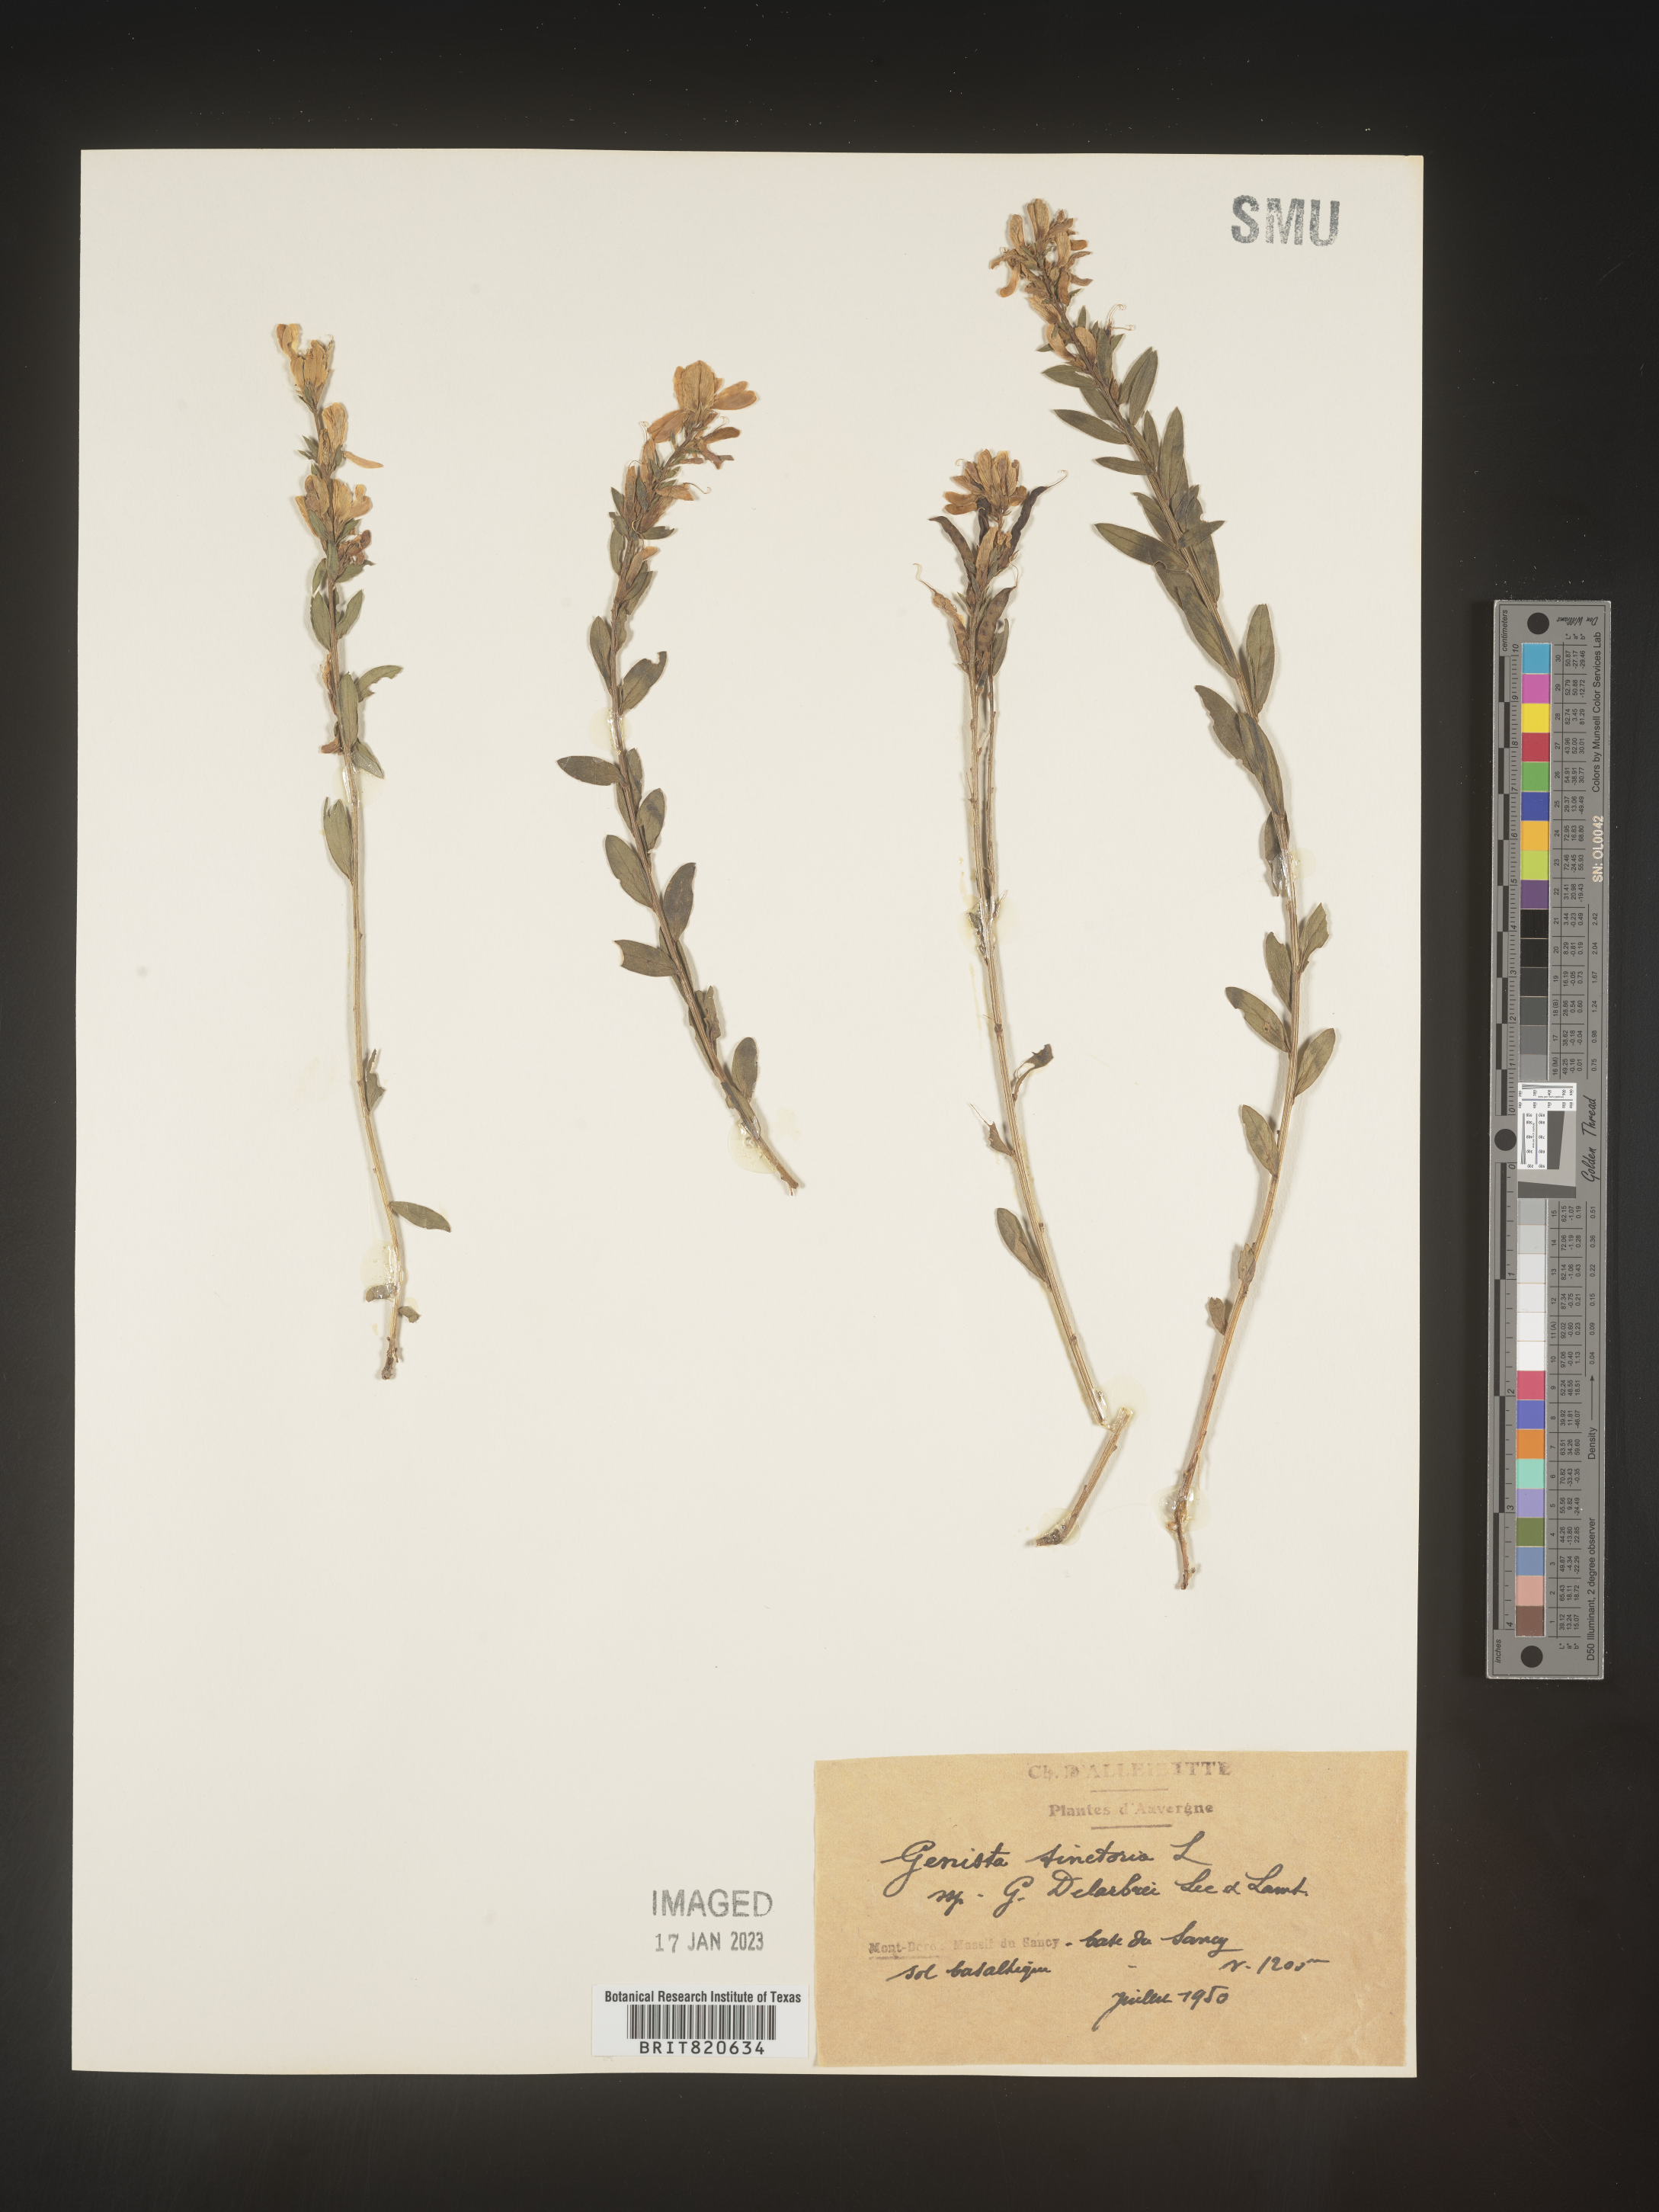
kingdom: Plantae
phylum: Tracheophyta
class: Magnoliopsida
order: Fabales
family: Fabaceae
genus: Genista
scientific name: Genista tinctoria
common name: Dyer's greenweed
